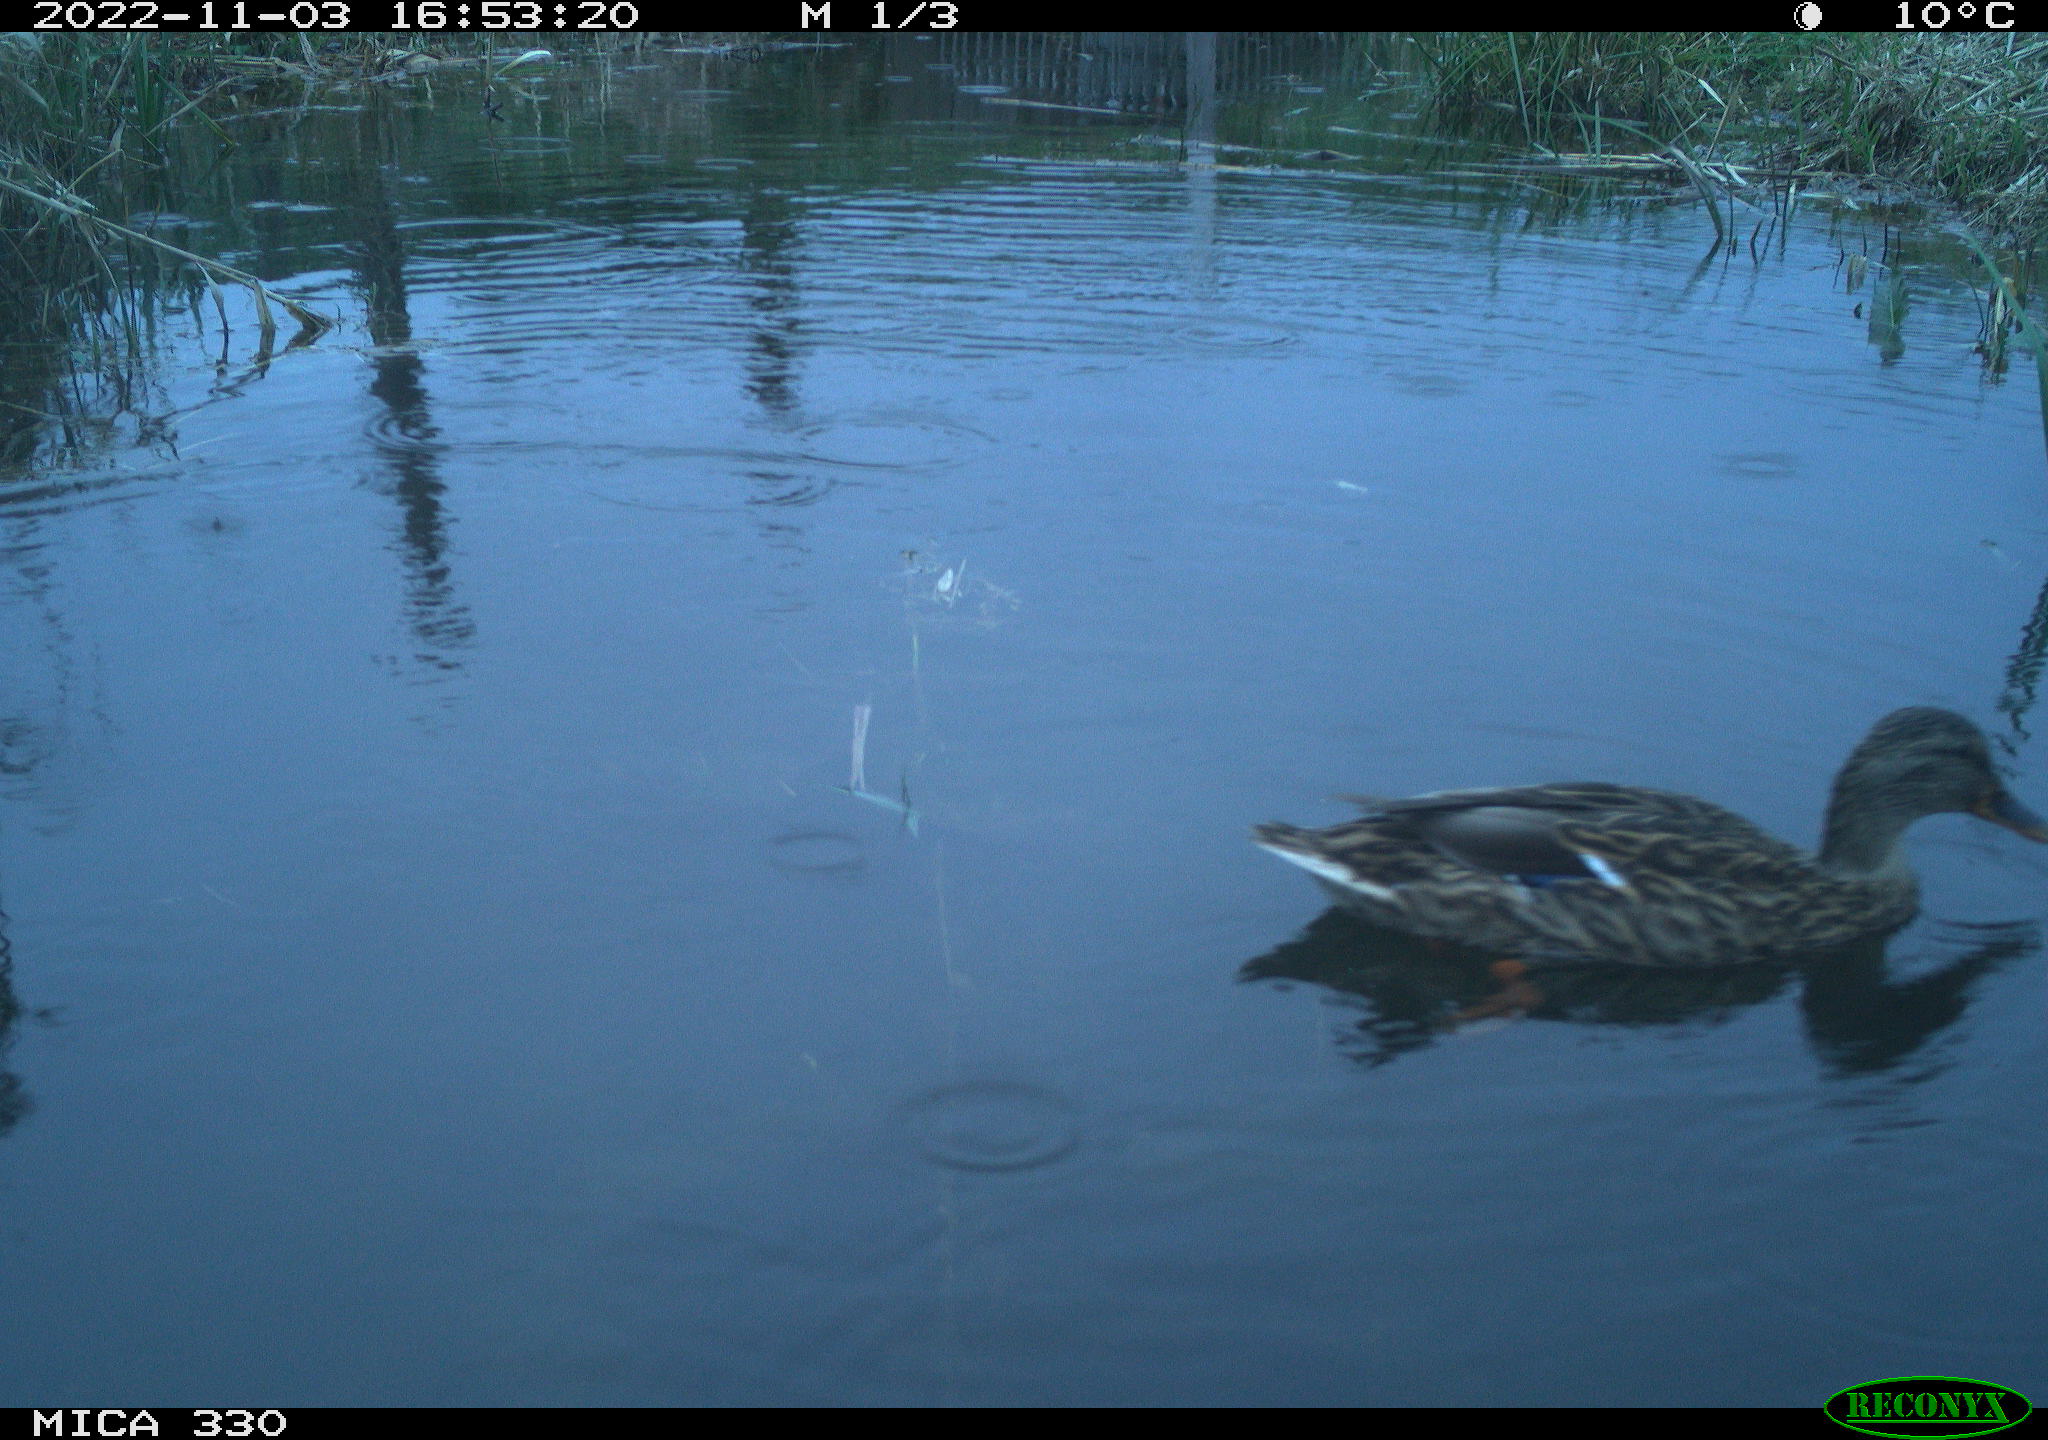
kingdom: Animalia
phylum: Chordata
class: Aves
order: Anseriformes
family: Anatidae
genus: Anas
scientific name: Anas
